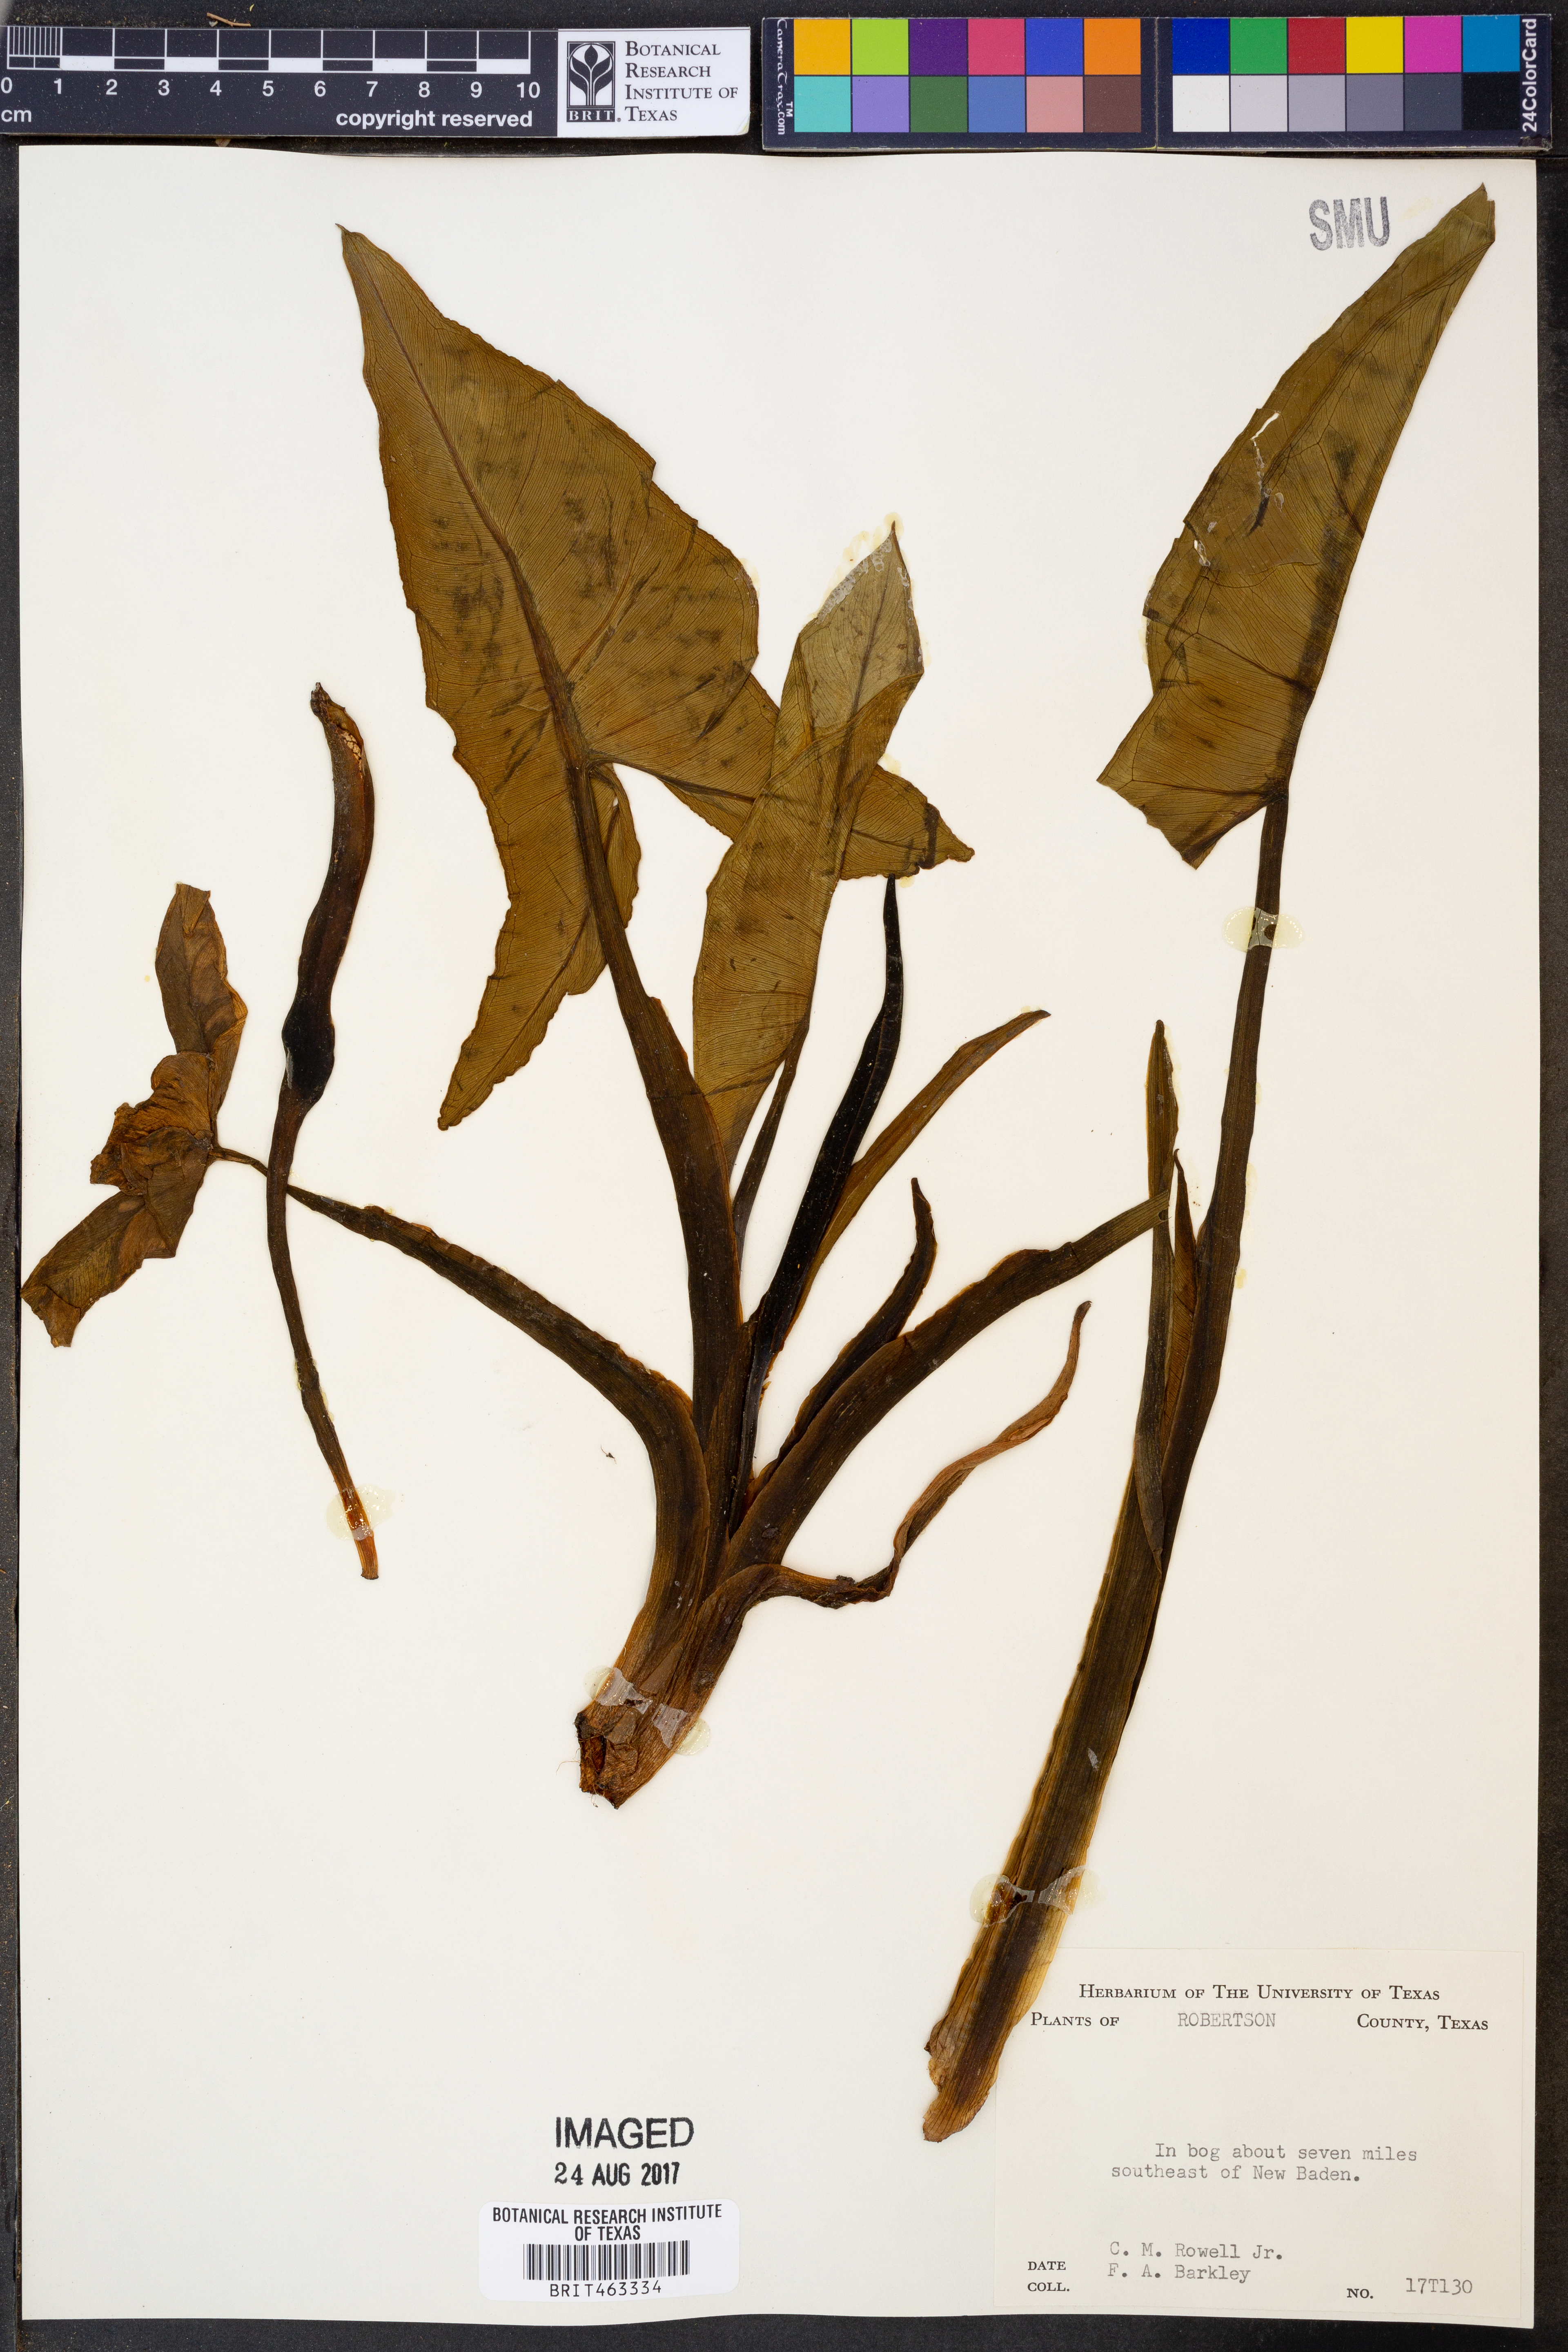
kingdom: Plantae
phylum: Tracheophyta
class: Liliopsida
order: Alismatales
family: Araceae
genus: Peltandra
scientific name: Peltandra
